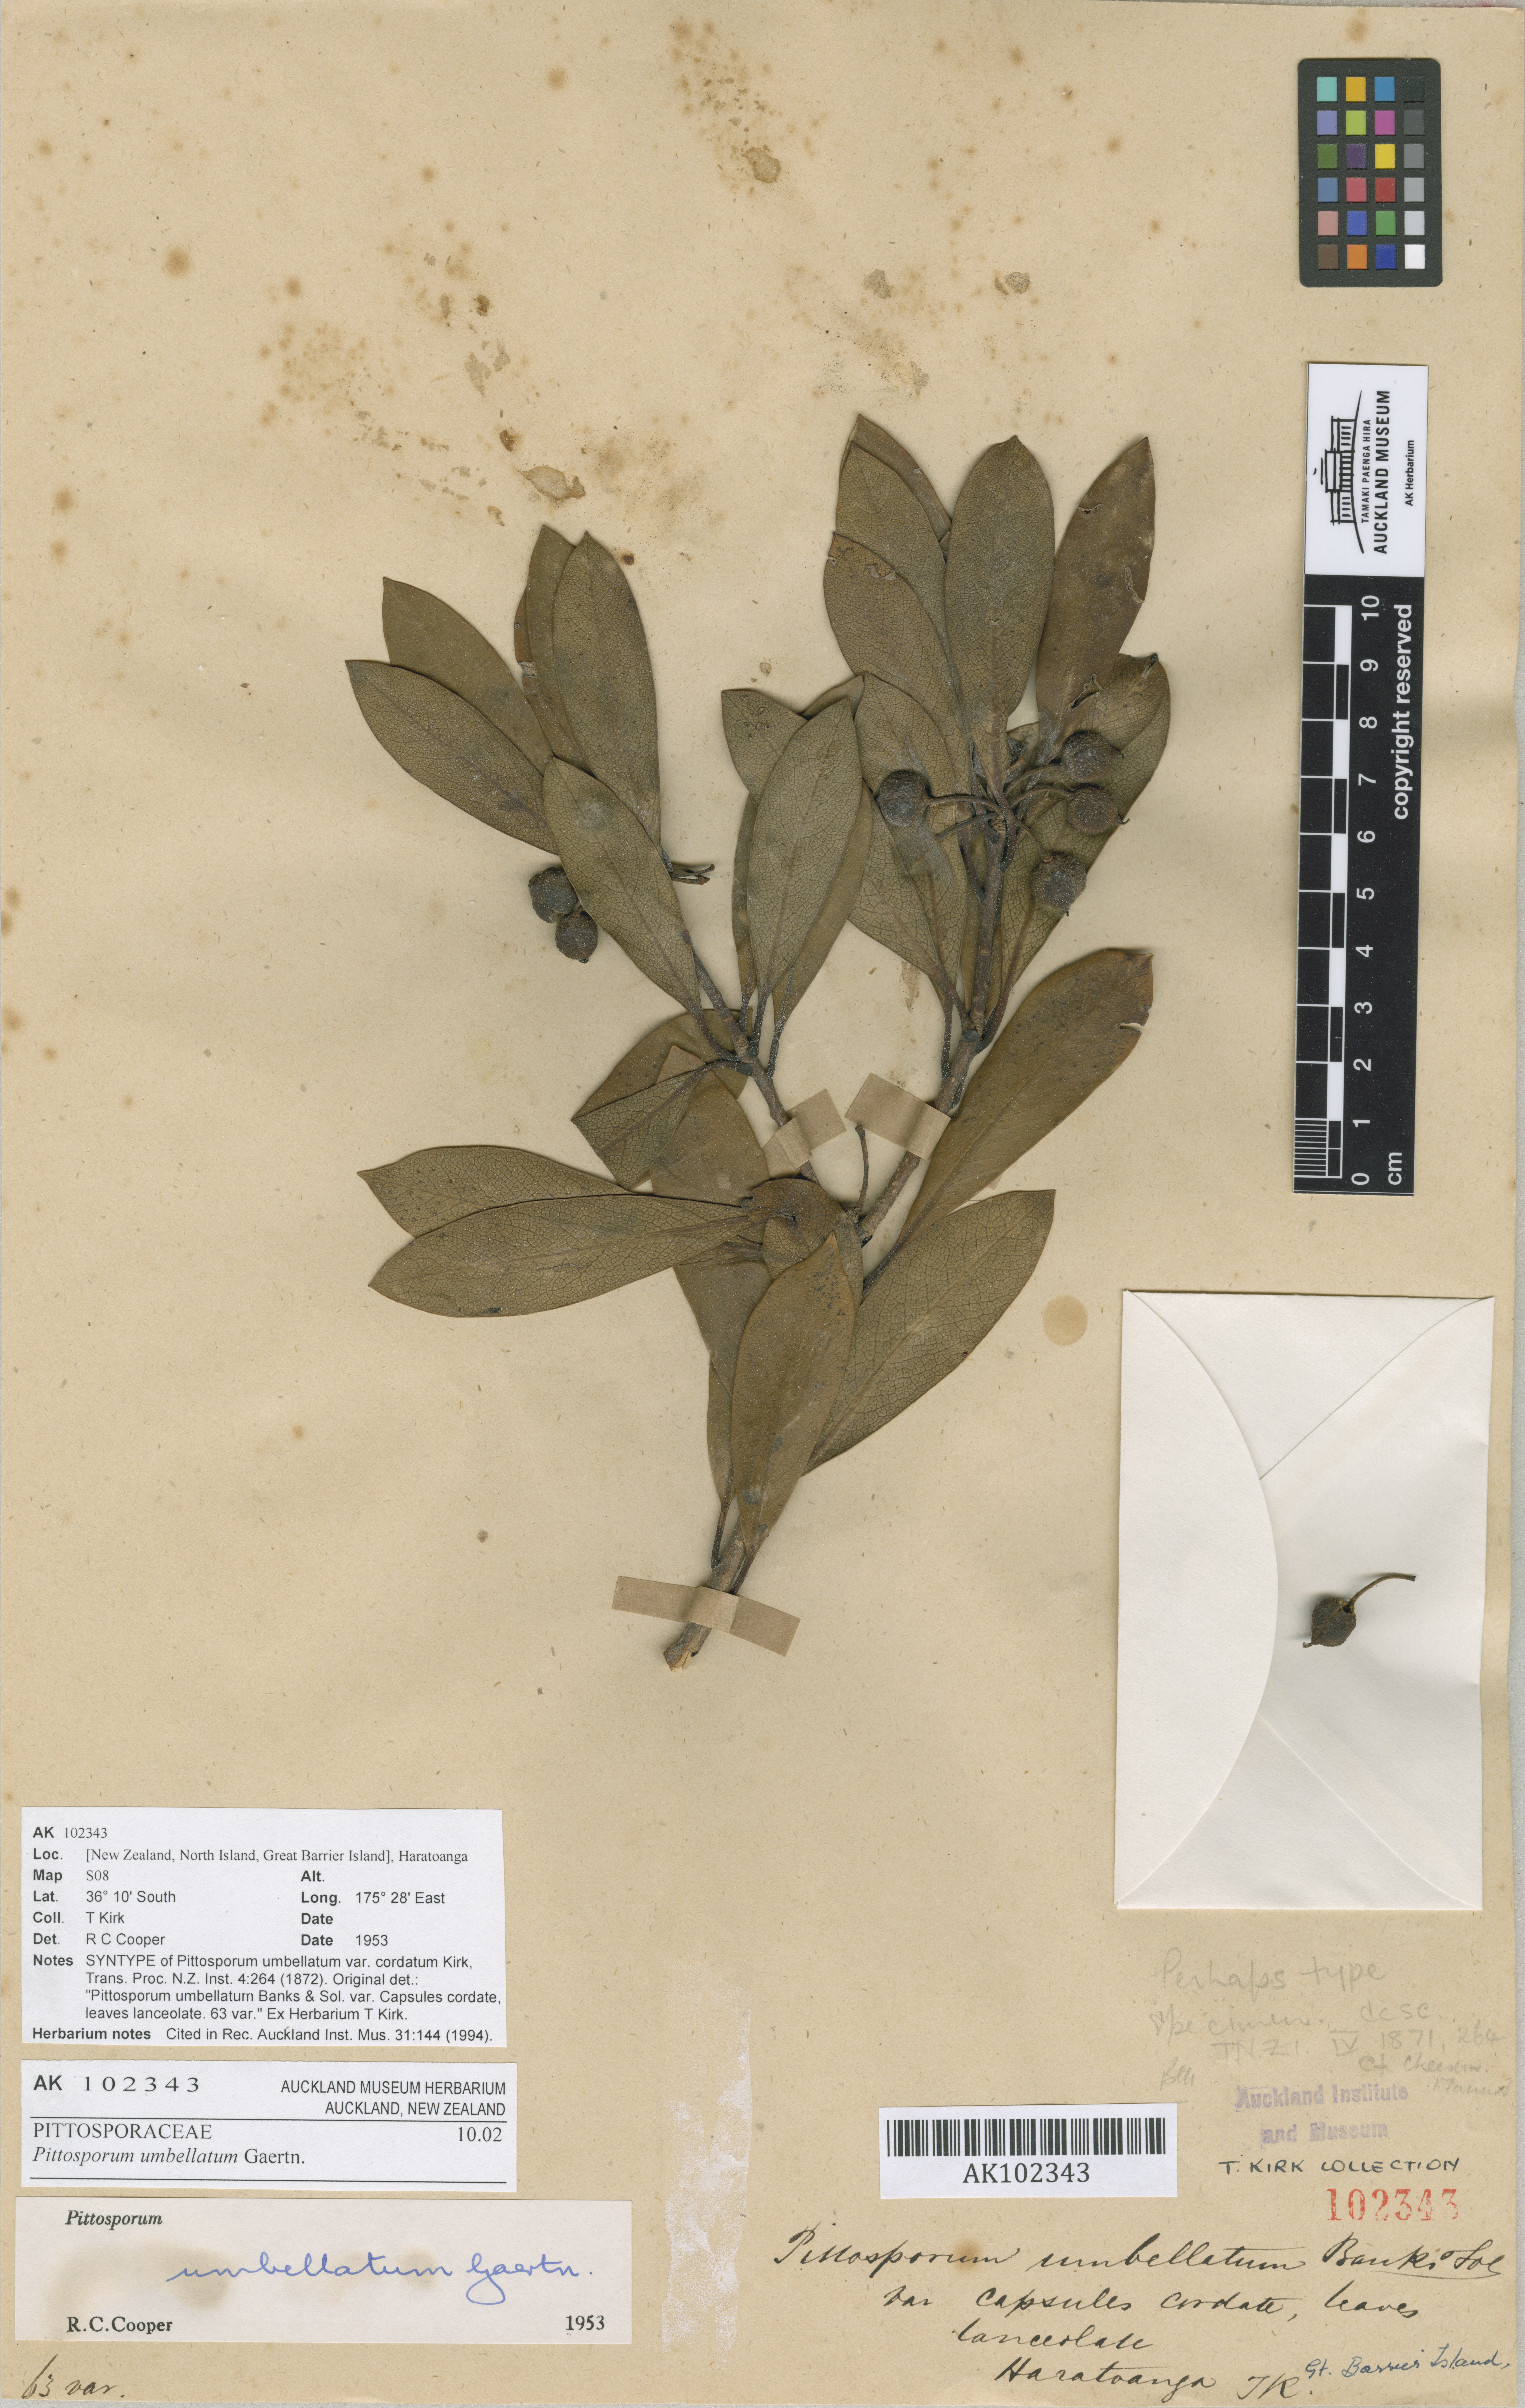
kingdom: Plantae
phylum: Tracheophyta
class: Magnoliopsida
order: Apiales
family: Pittosporaceae
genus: Pittosporum
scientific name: Pittosporum umbellatum
